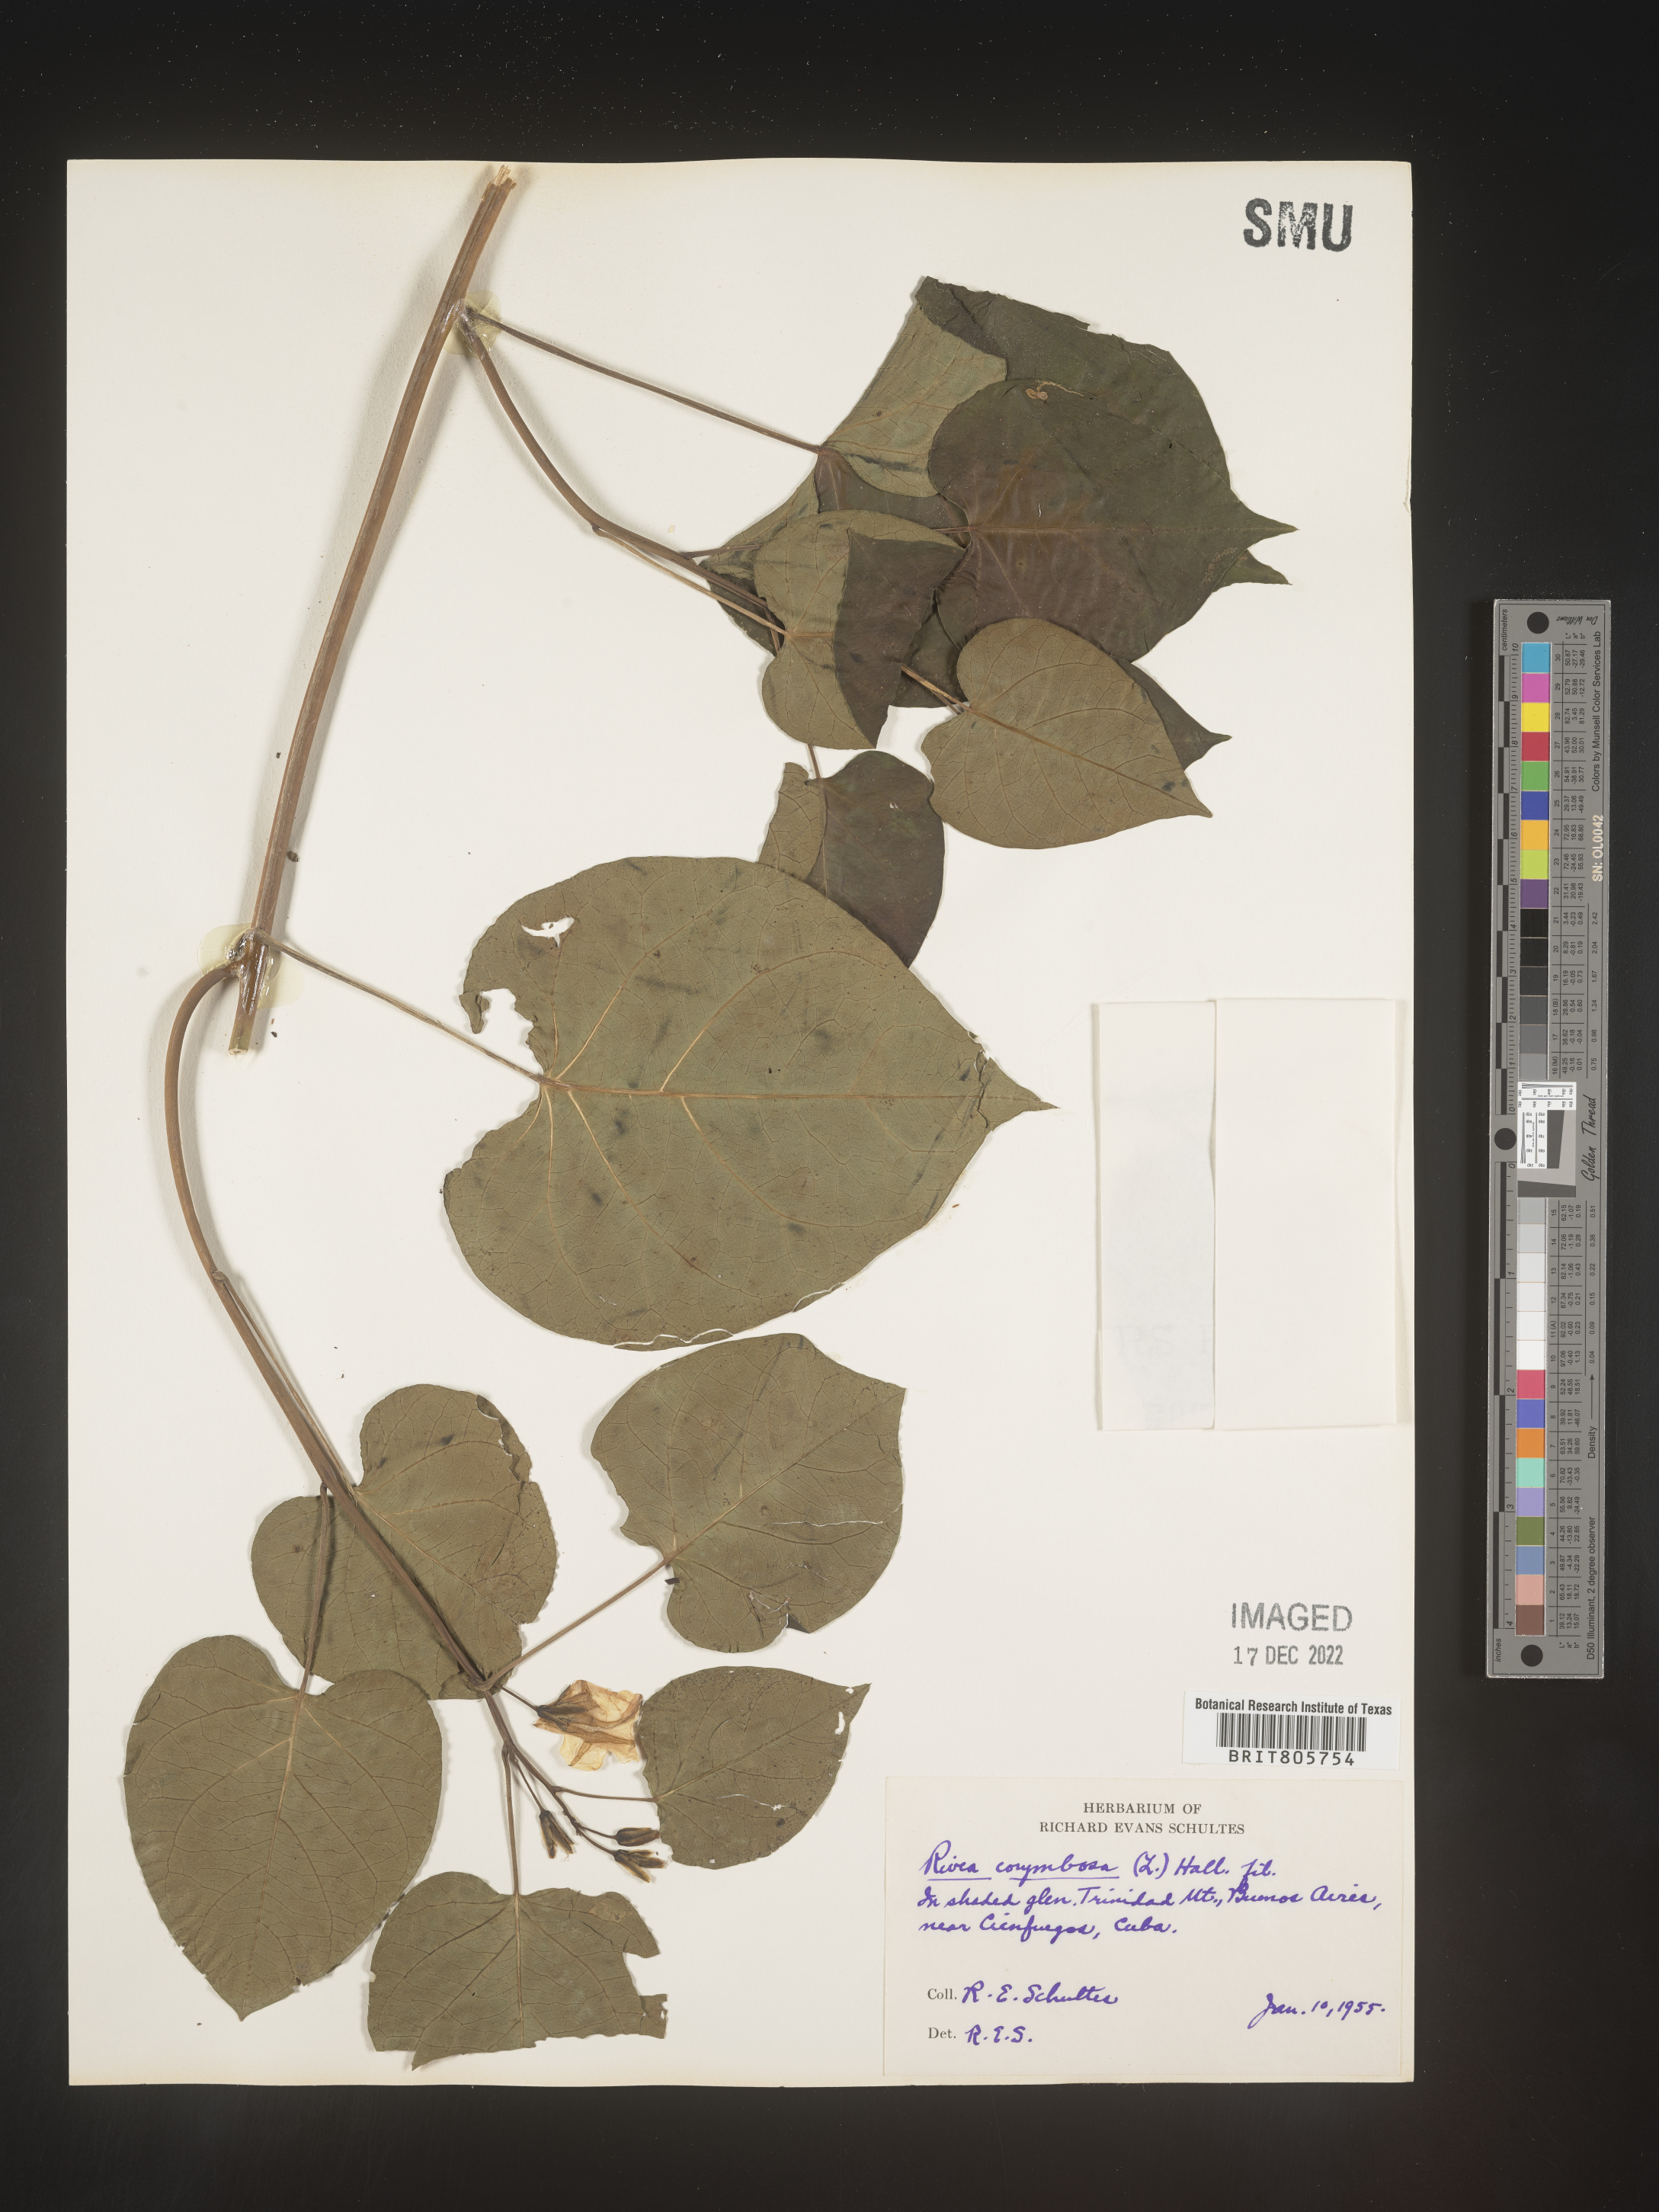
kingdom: Plantae
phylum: Tracheophyta
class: Magnoliopsida
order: Solanales
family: Convolvulaceae
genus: Rivea
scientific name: Rivea
